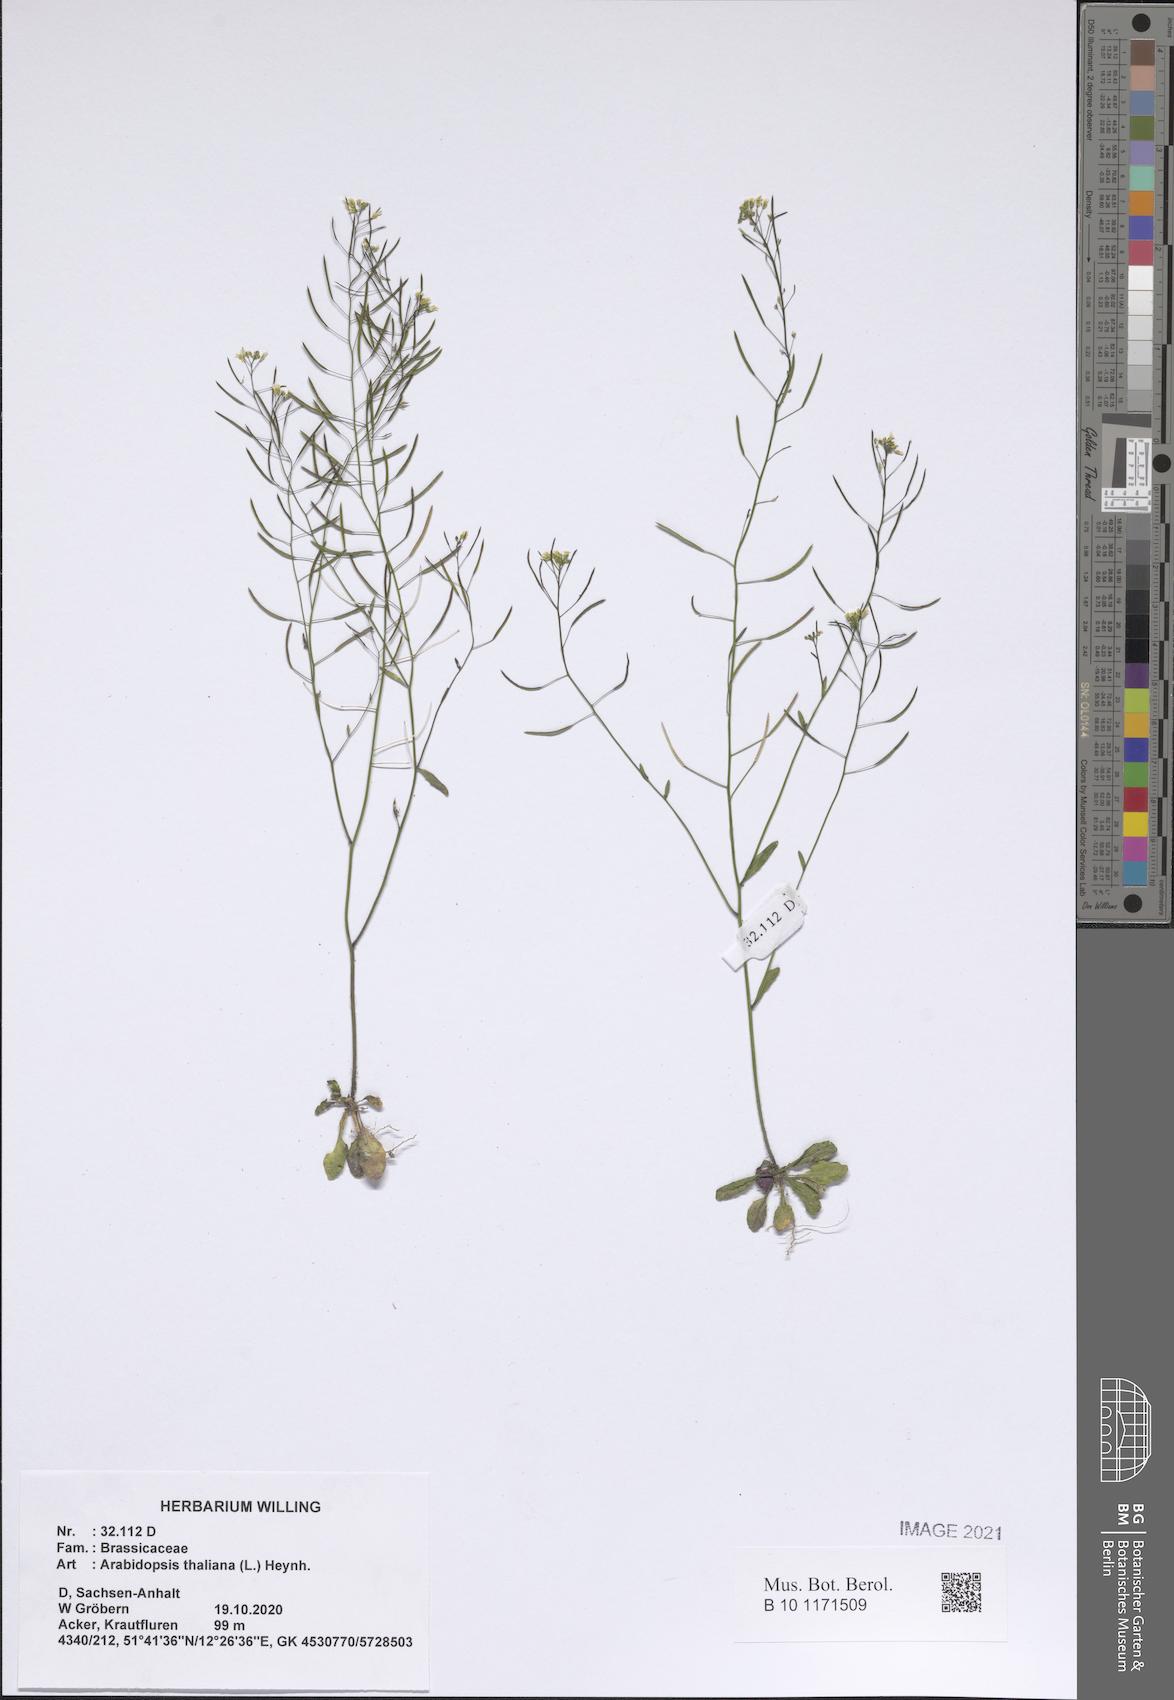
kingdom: Plantae
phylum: Tracheophyta
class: Magnoliopsida
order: Brassicales
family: Brassicaceae
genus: Arabidopsis
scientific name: Arabidopsis thaliana
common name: Thale cress
